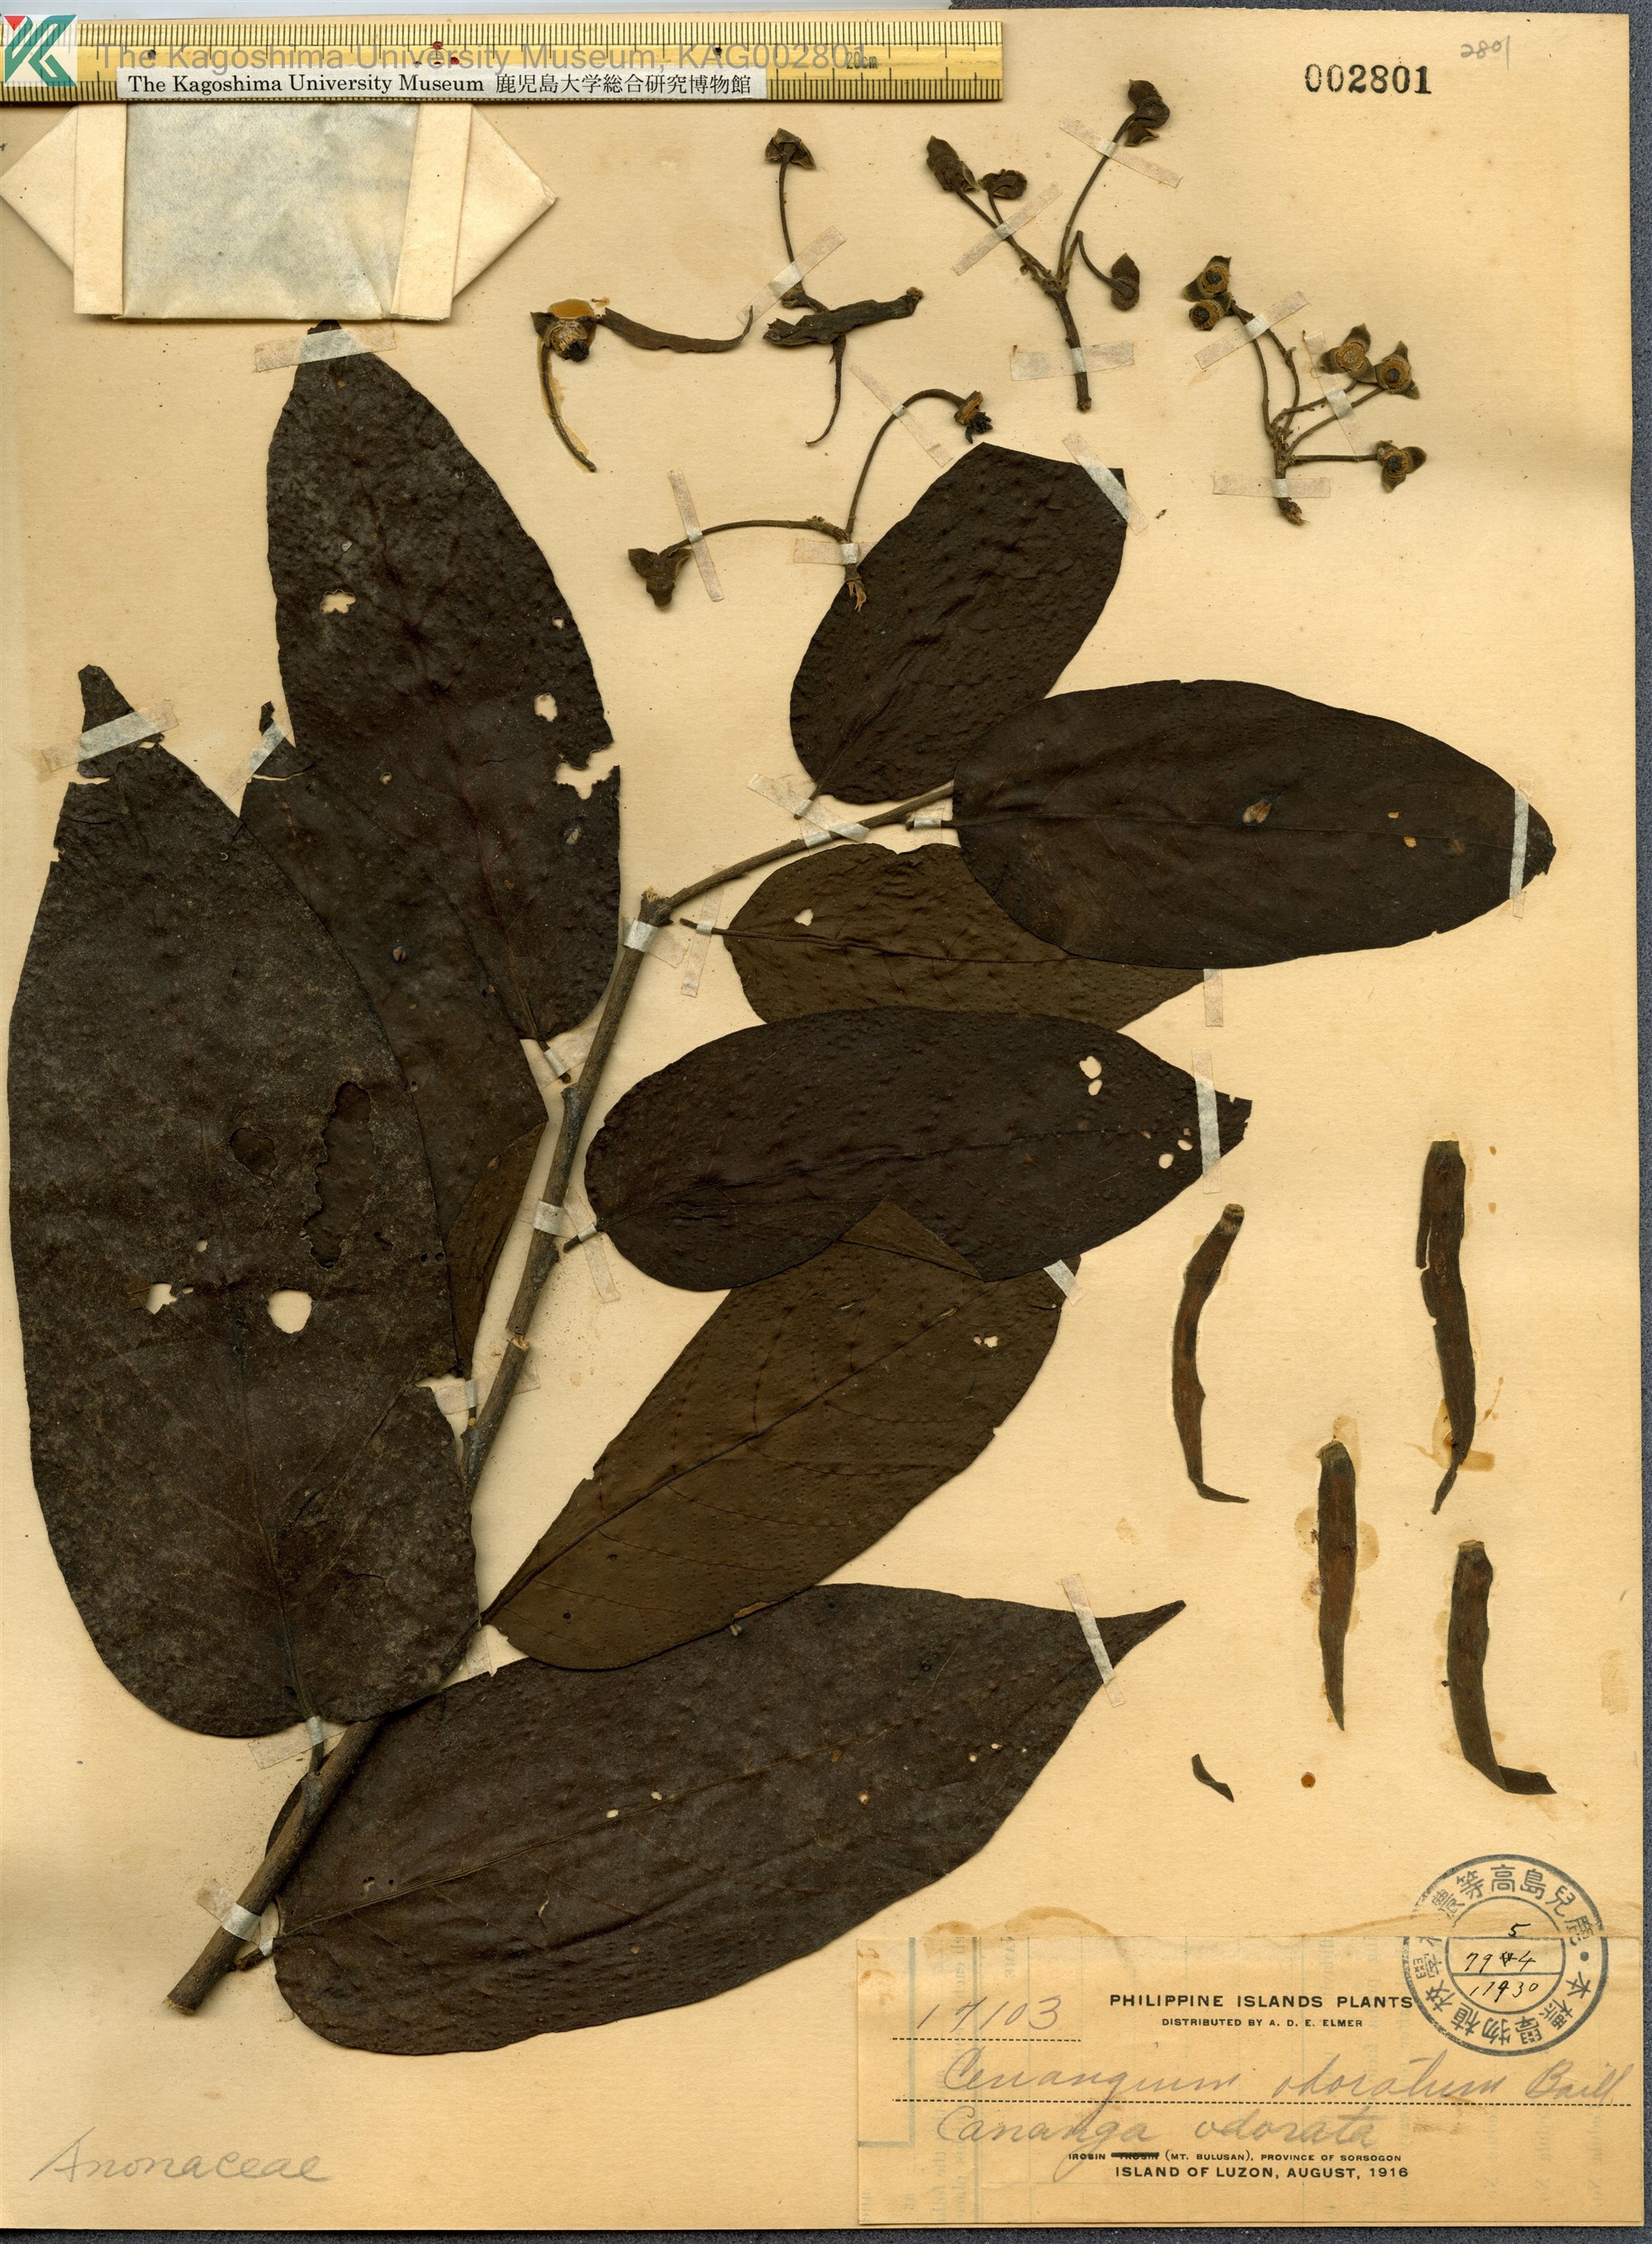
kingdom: Plantae
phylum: Tracheophyta
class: Magnoliopsida
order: Magnoliales
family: Annonaceae
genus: Cananga
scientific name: Cananga odorata
